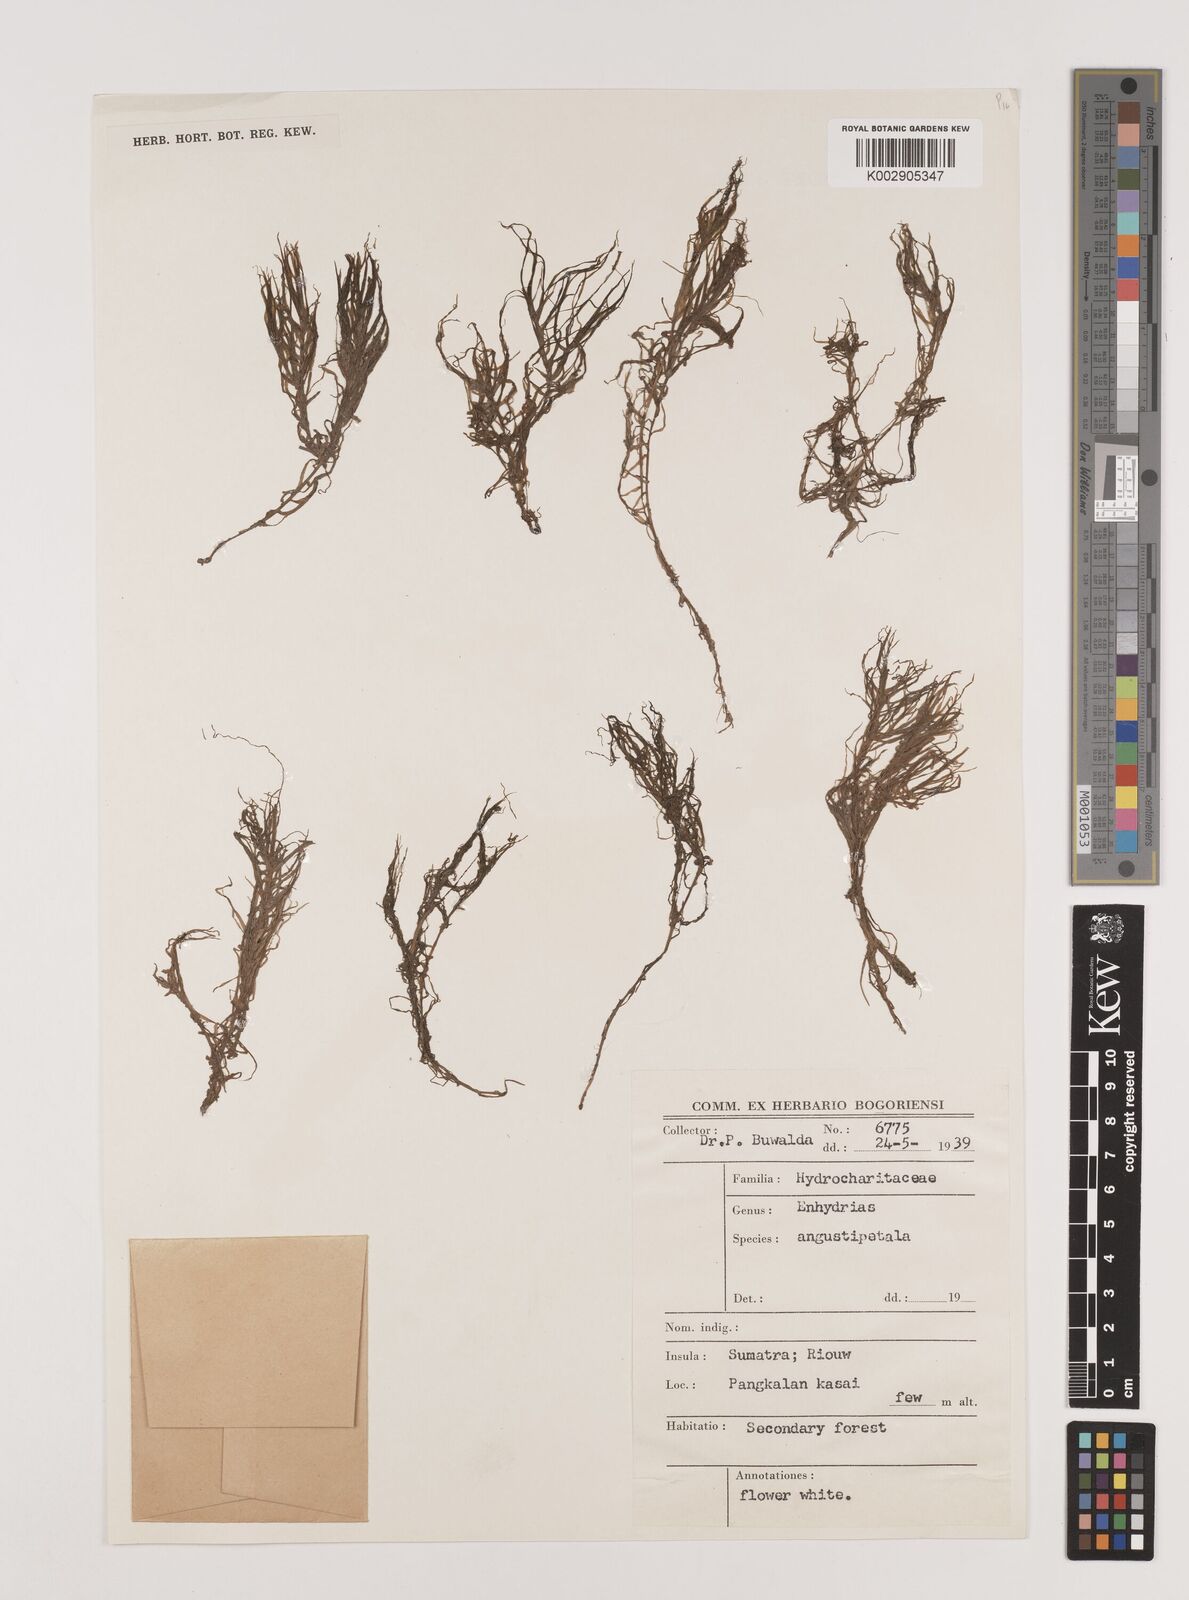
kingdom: Plantae
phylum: Tracheophyta
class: Liliopsida
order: Alismatales
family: Hydrocharitaceae
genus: Blyxa
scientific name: Blyxa japonica
